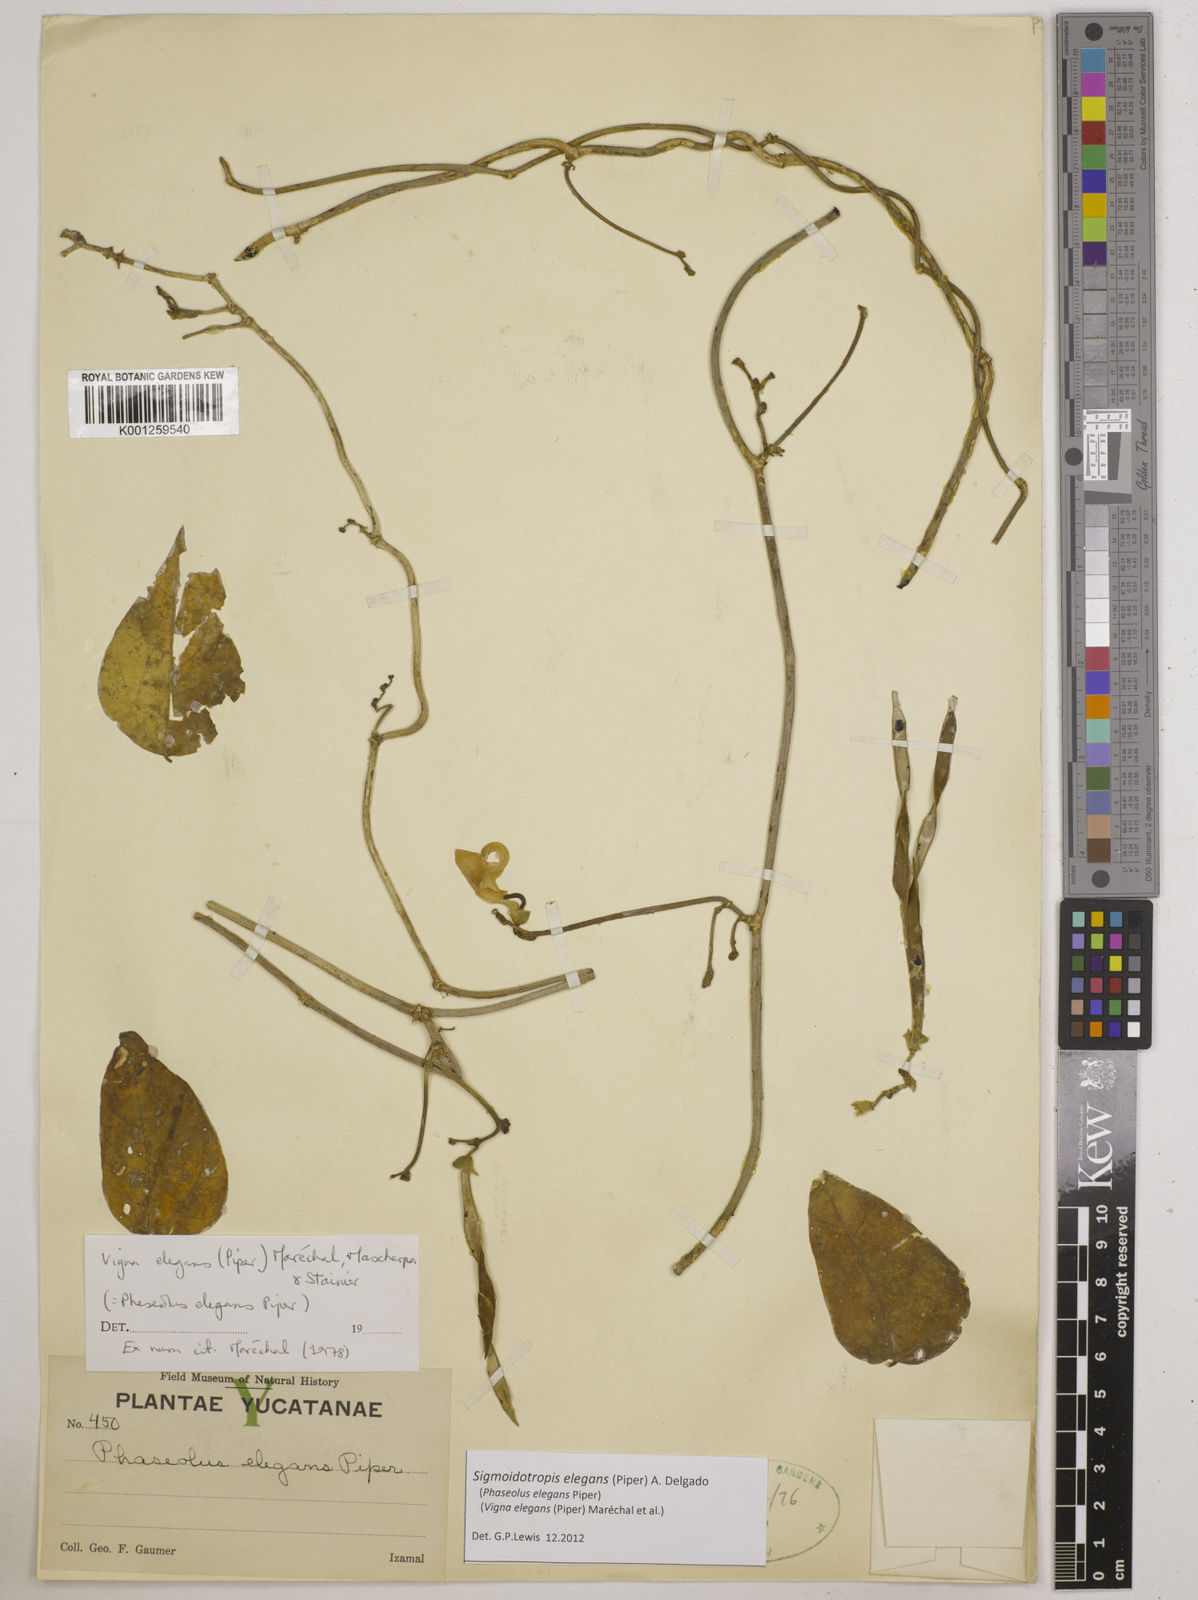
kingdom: Plantae
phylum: Tracheophyta
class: Magnoliopsida
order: Fabales
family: Fabaceae
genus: Sigmoidotropis
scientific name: Sigmoidotropis elegans
